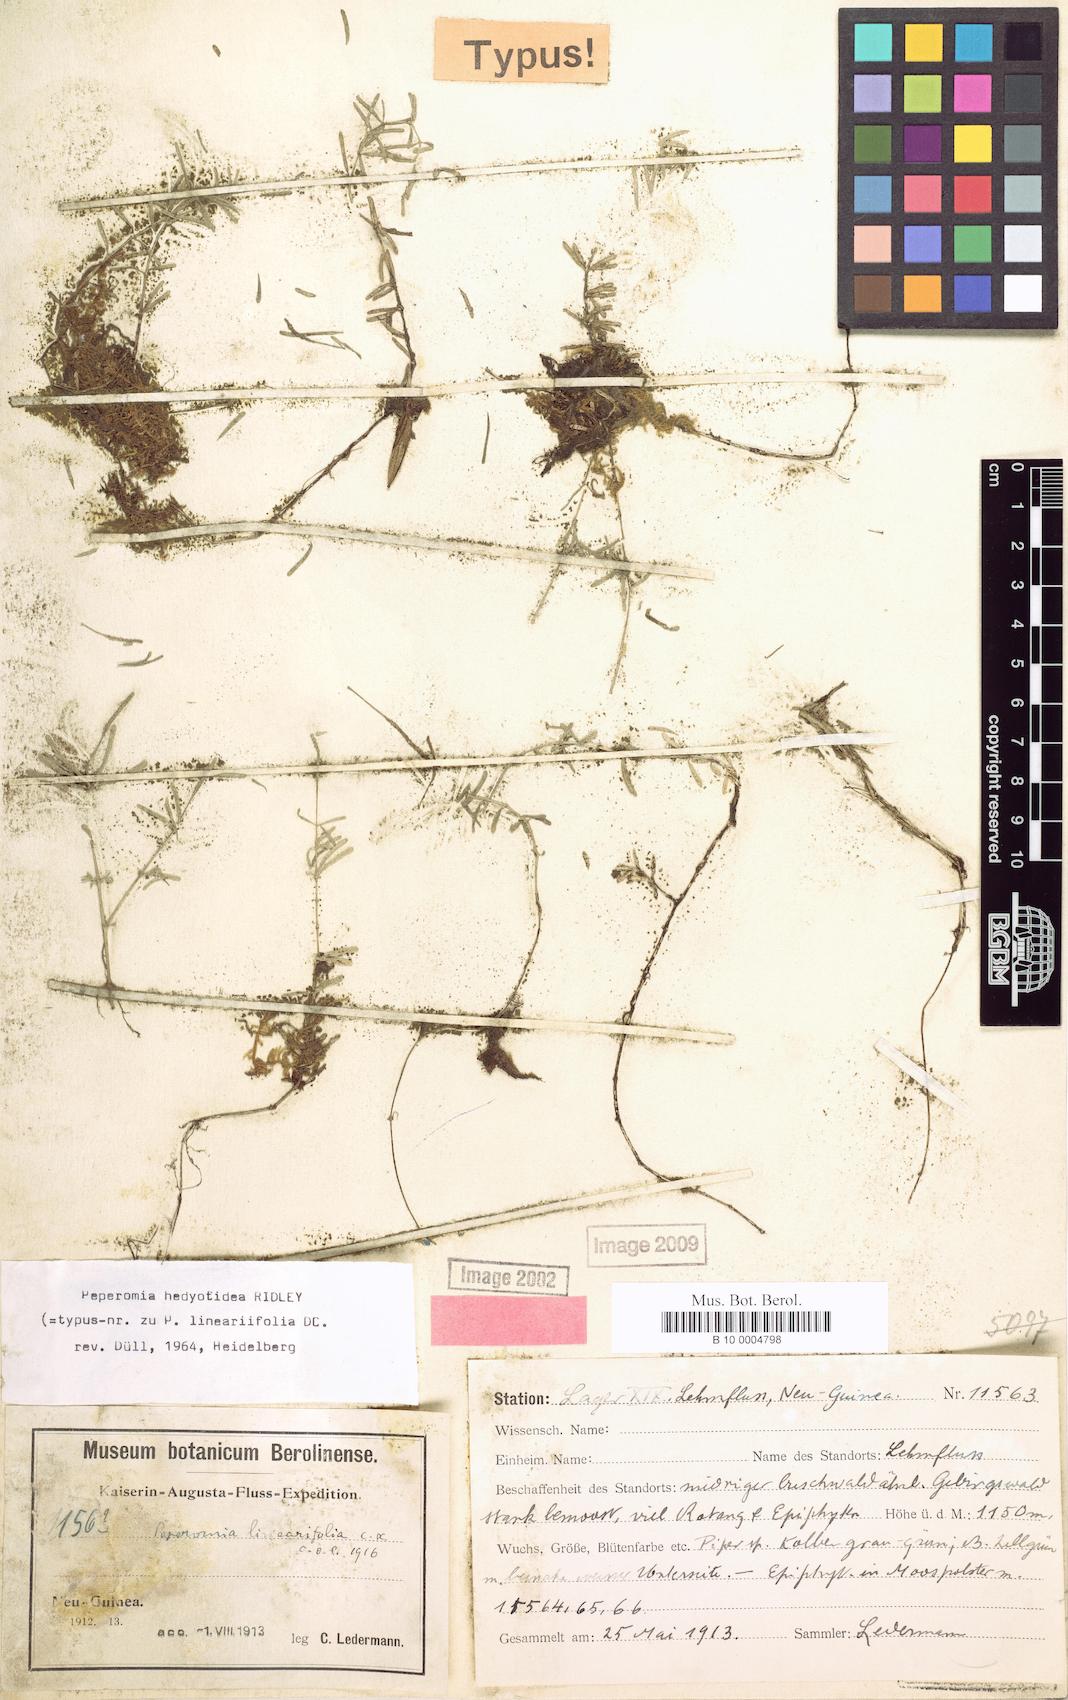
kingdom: Plantae
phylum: Tracheophyta
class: Magnoliopsida
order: Piperales
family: Piperaceae
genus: Peperomia
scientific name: Peperomia hedyotidea
